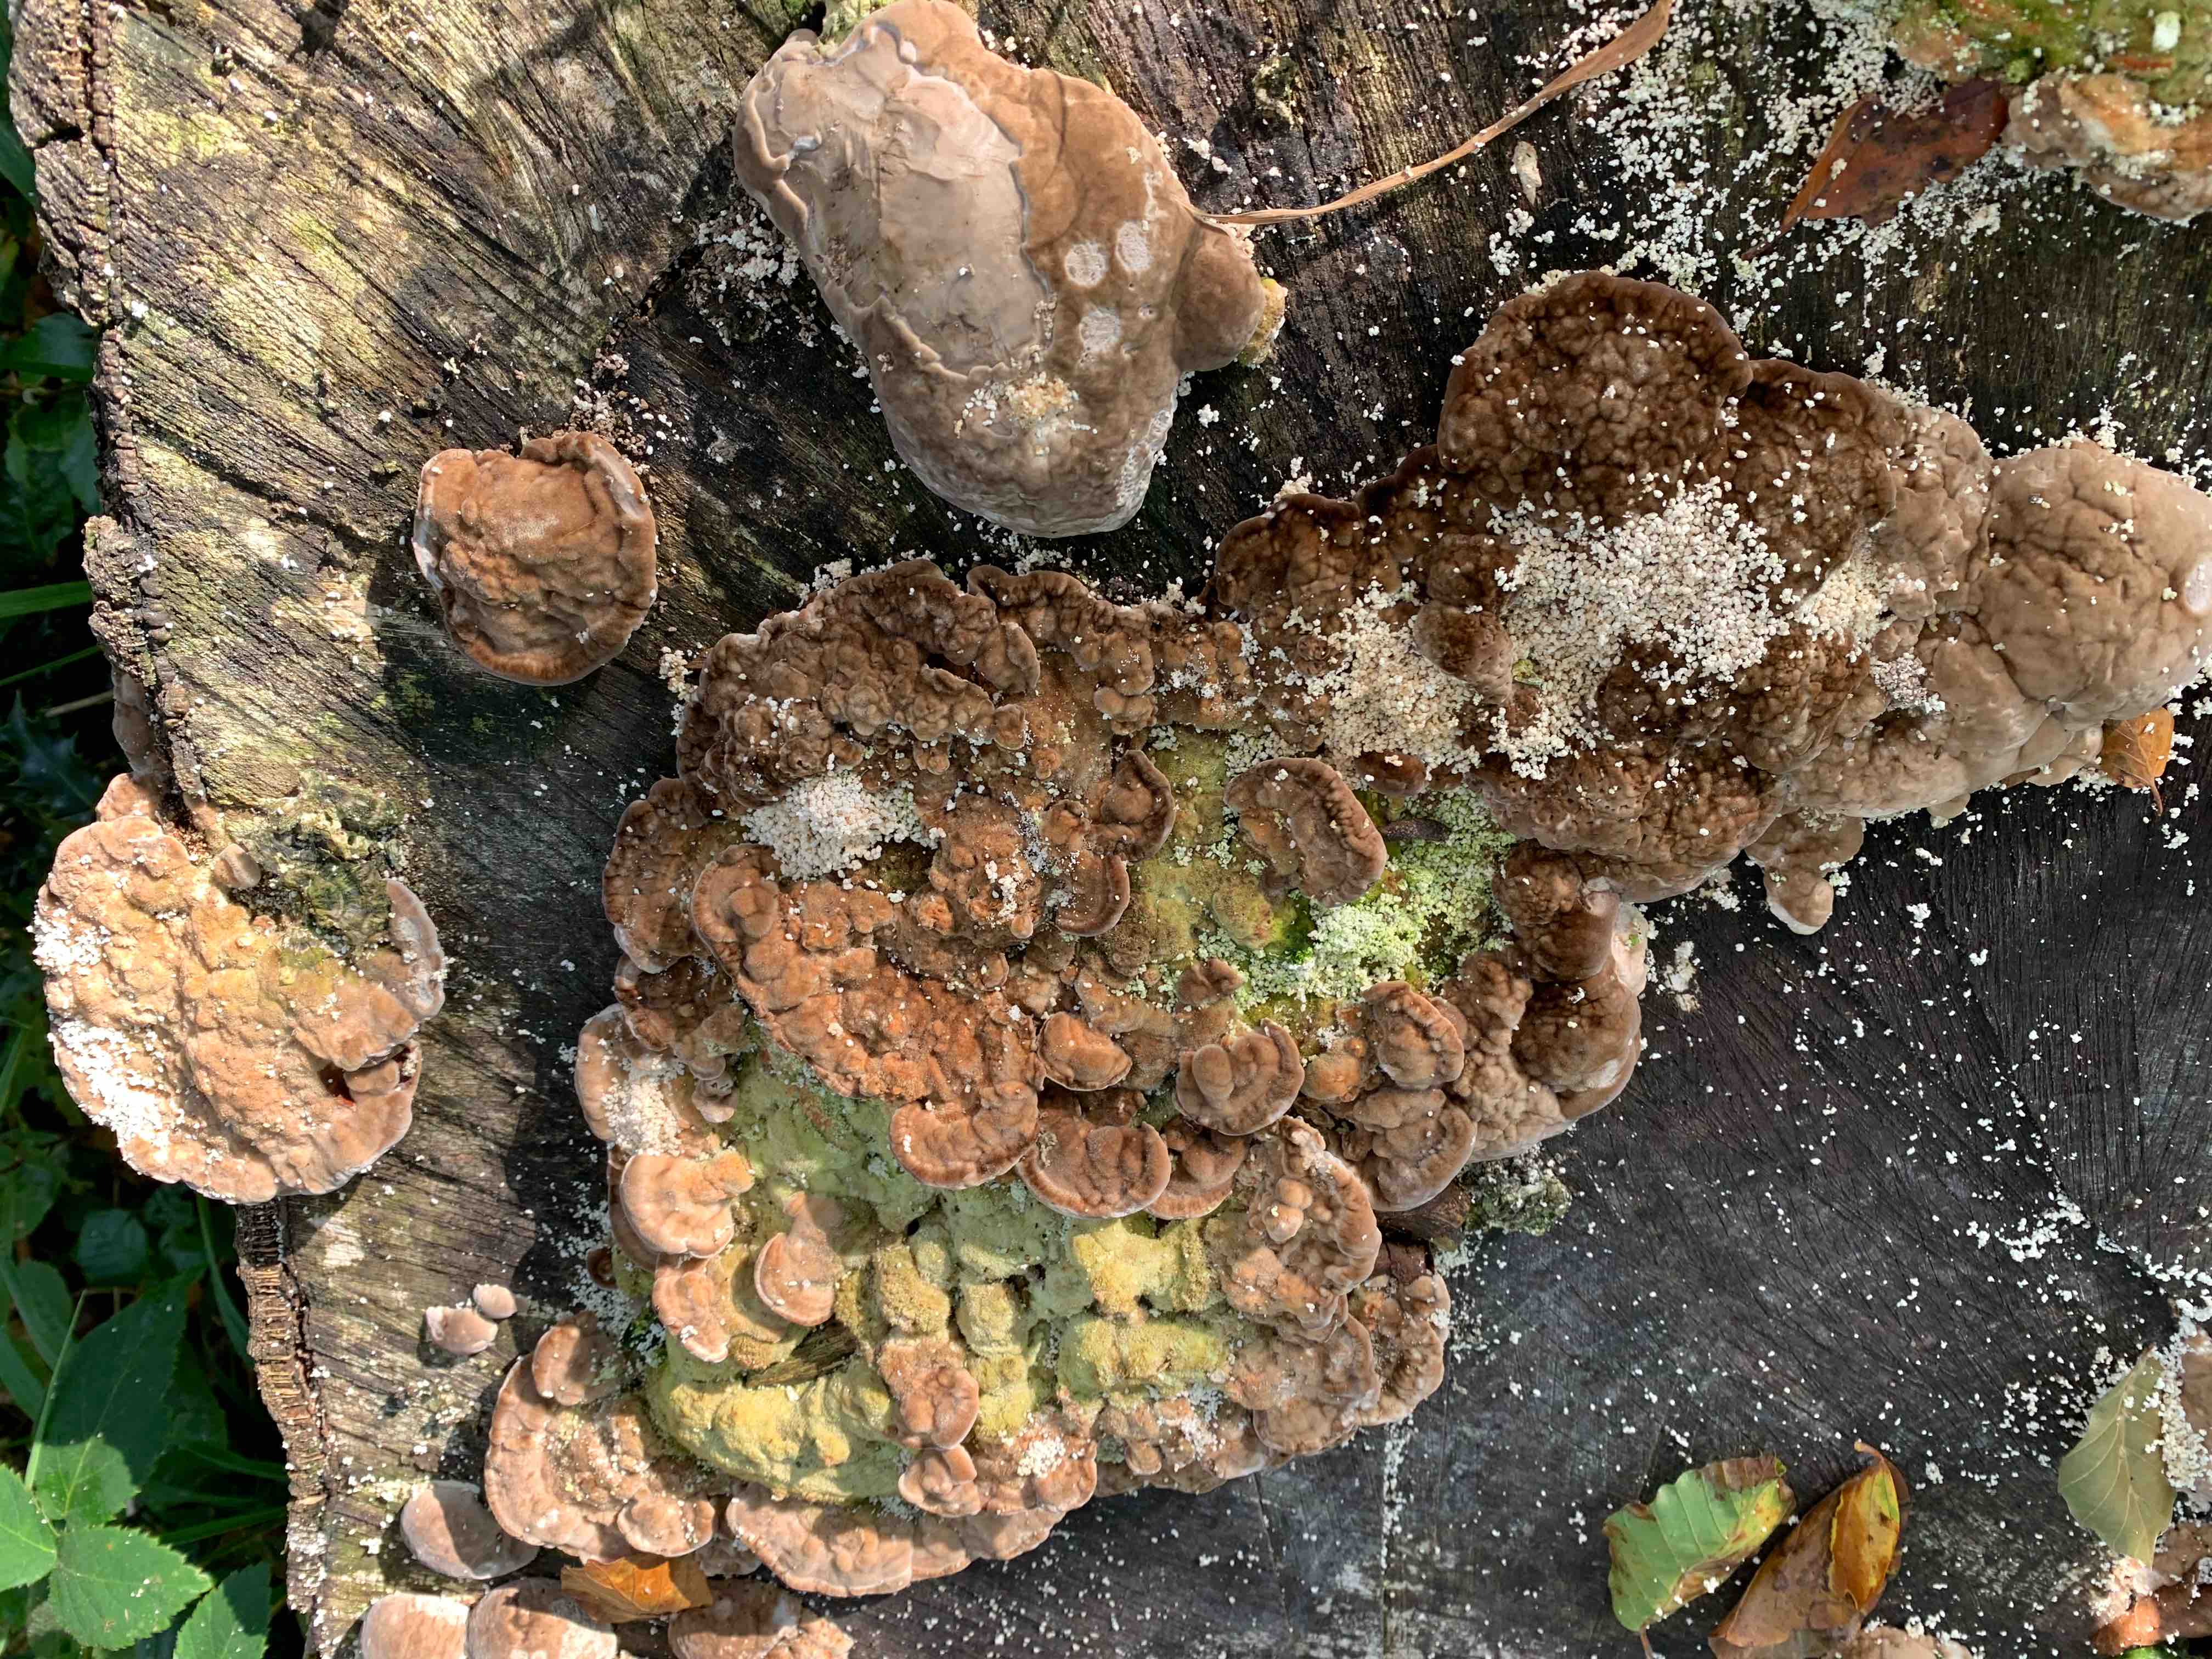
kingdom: Fungi
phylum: Basidiomycota
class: Agaricomycetes
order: Polyporales
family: Polyporaceae
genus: Trametes
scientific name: Trametes
